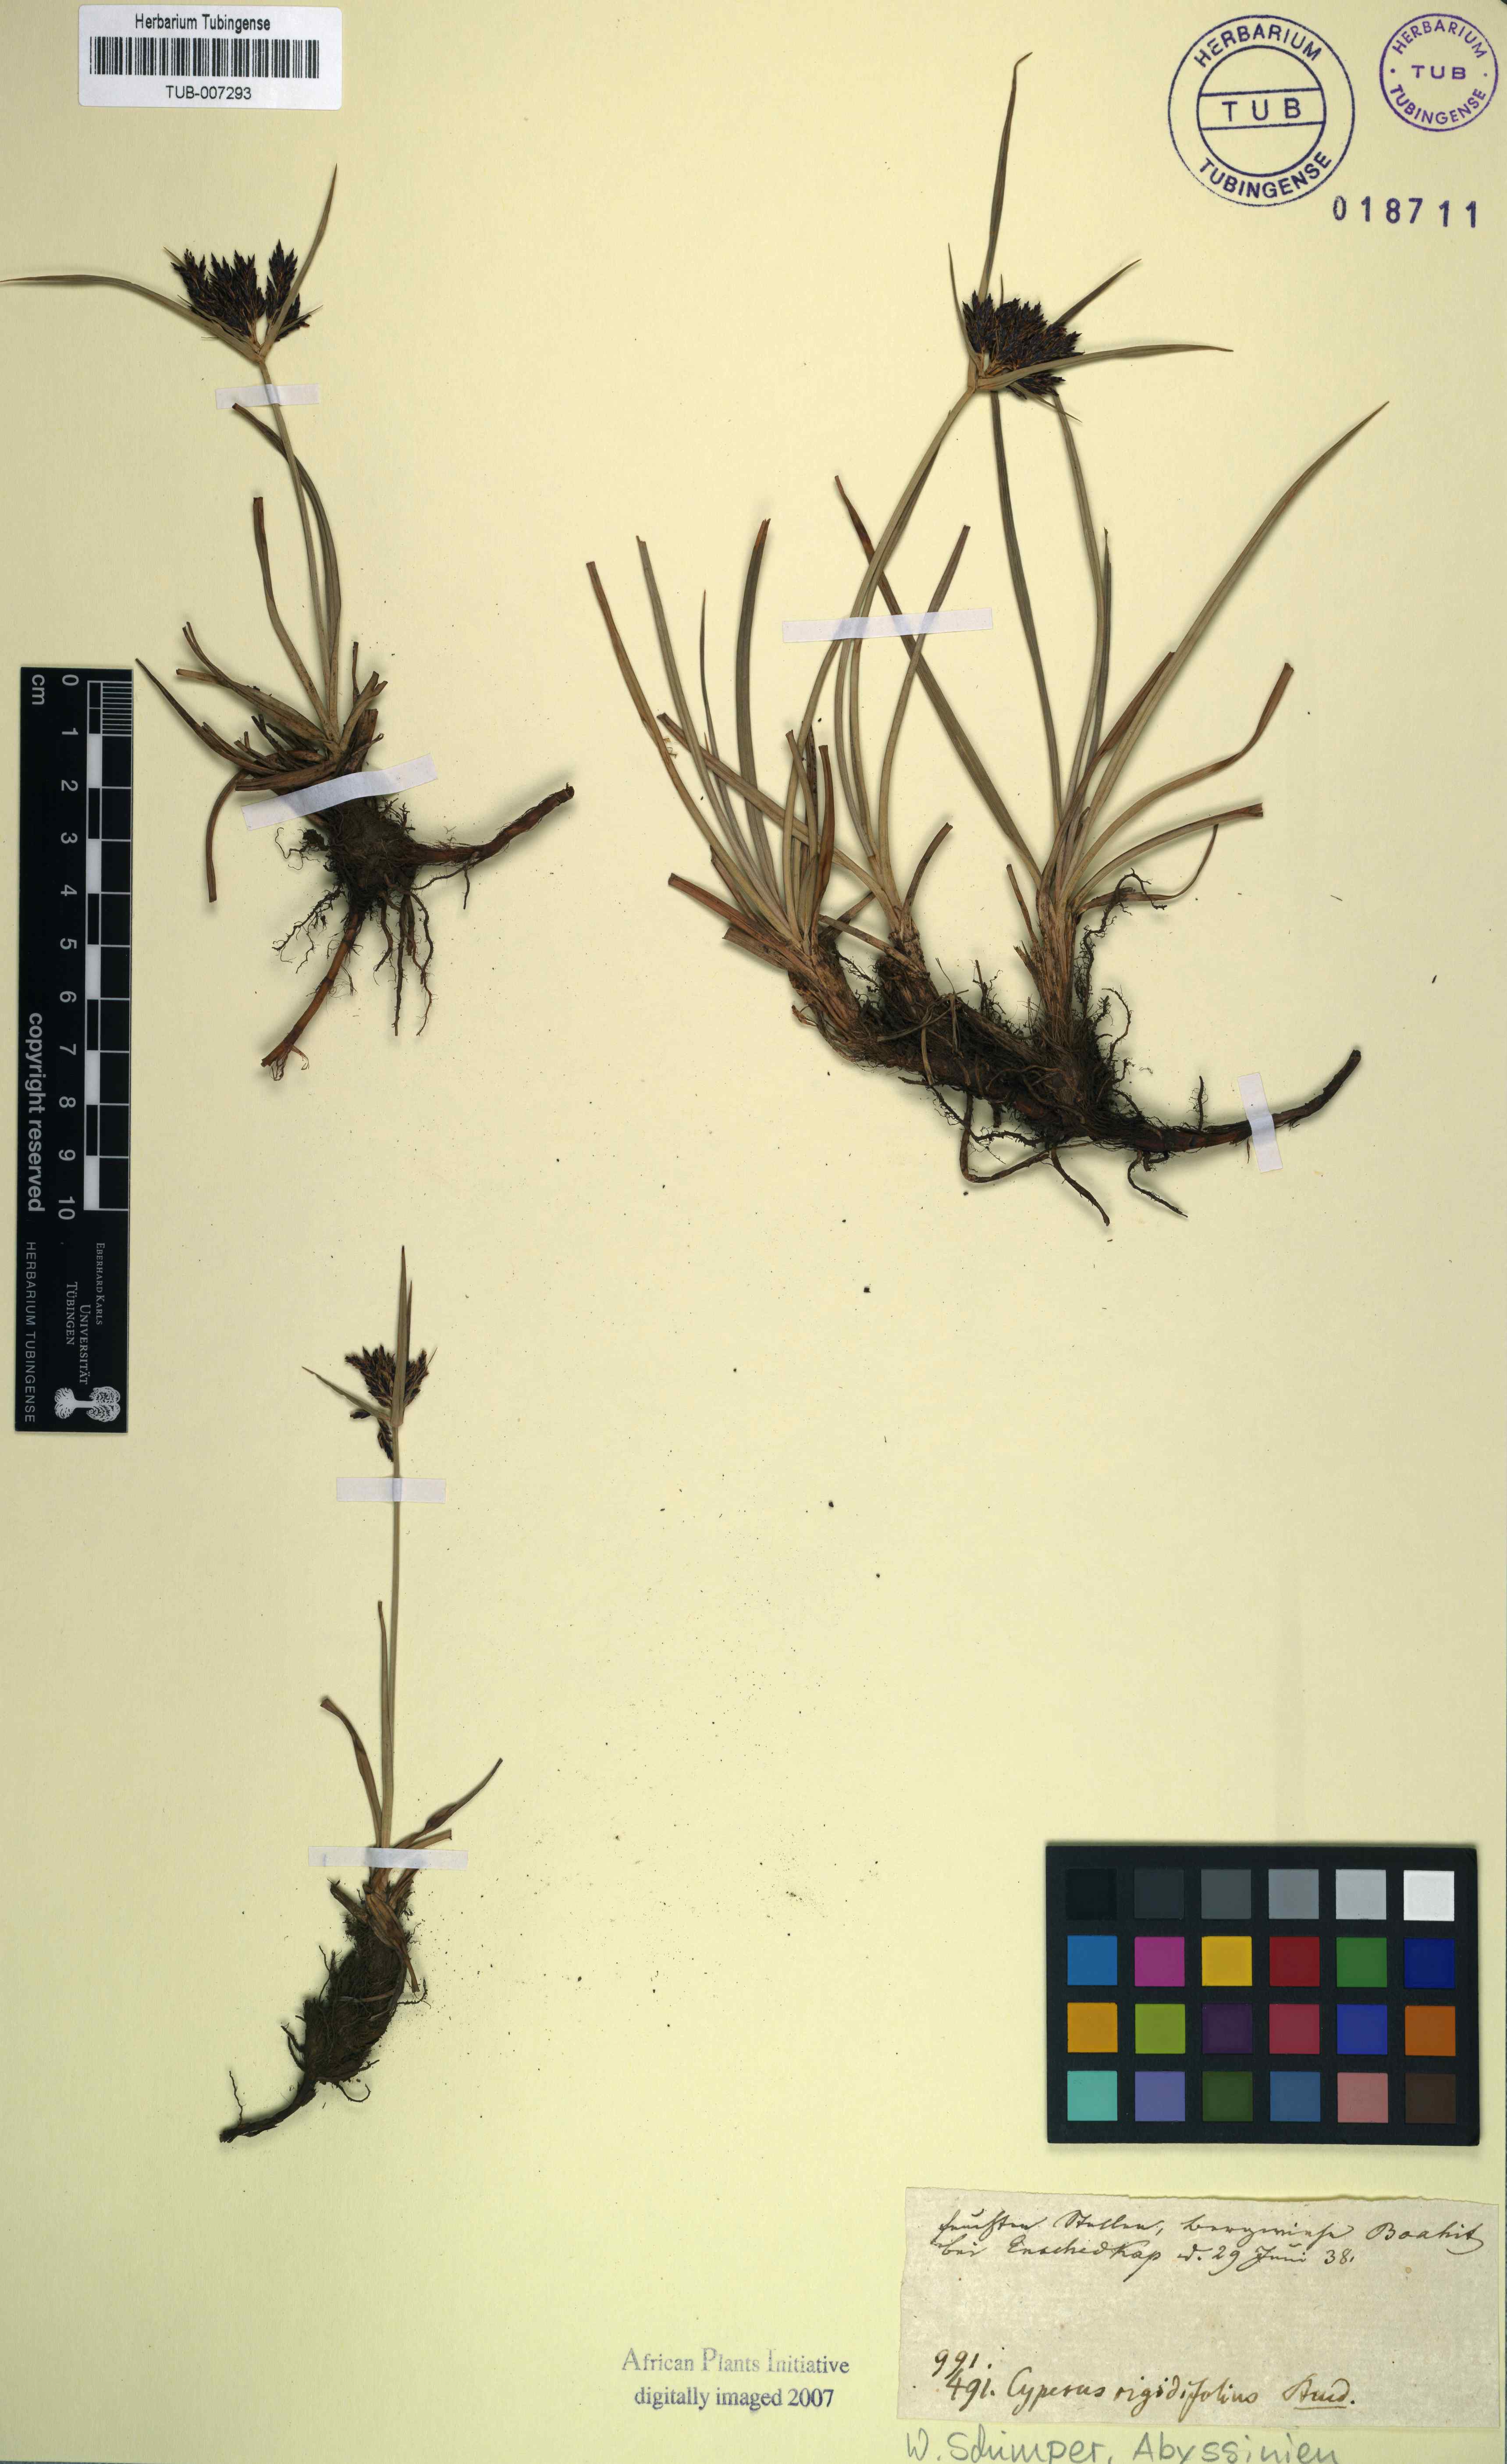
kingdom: Plantae
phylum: Tracheophyta
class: Liliopsida
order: Poales
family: Cyperaceae
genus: Cyperus
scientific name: Cyperus rigidifolius
